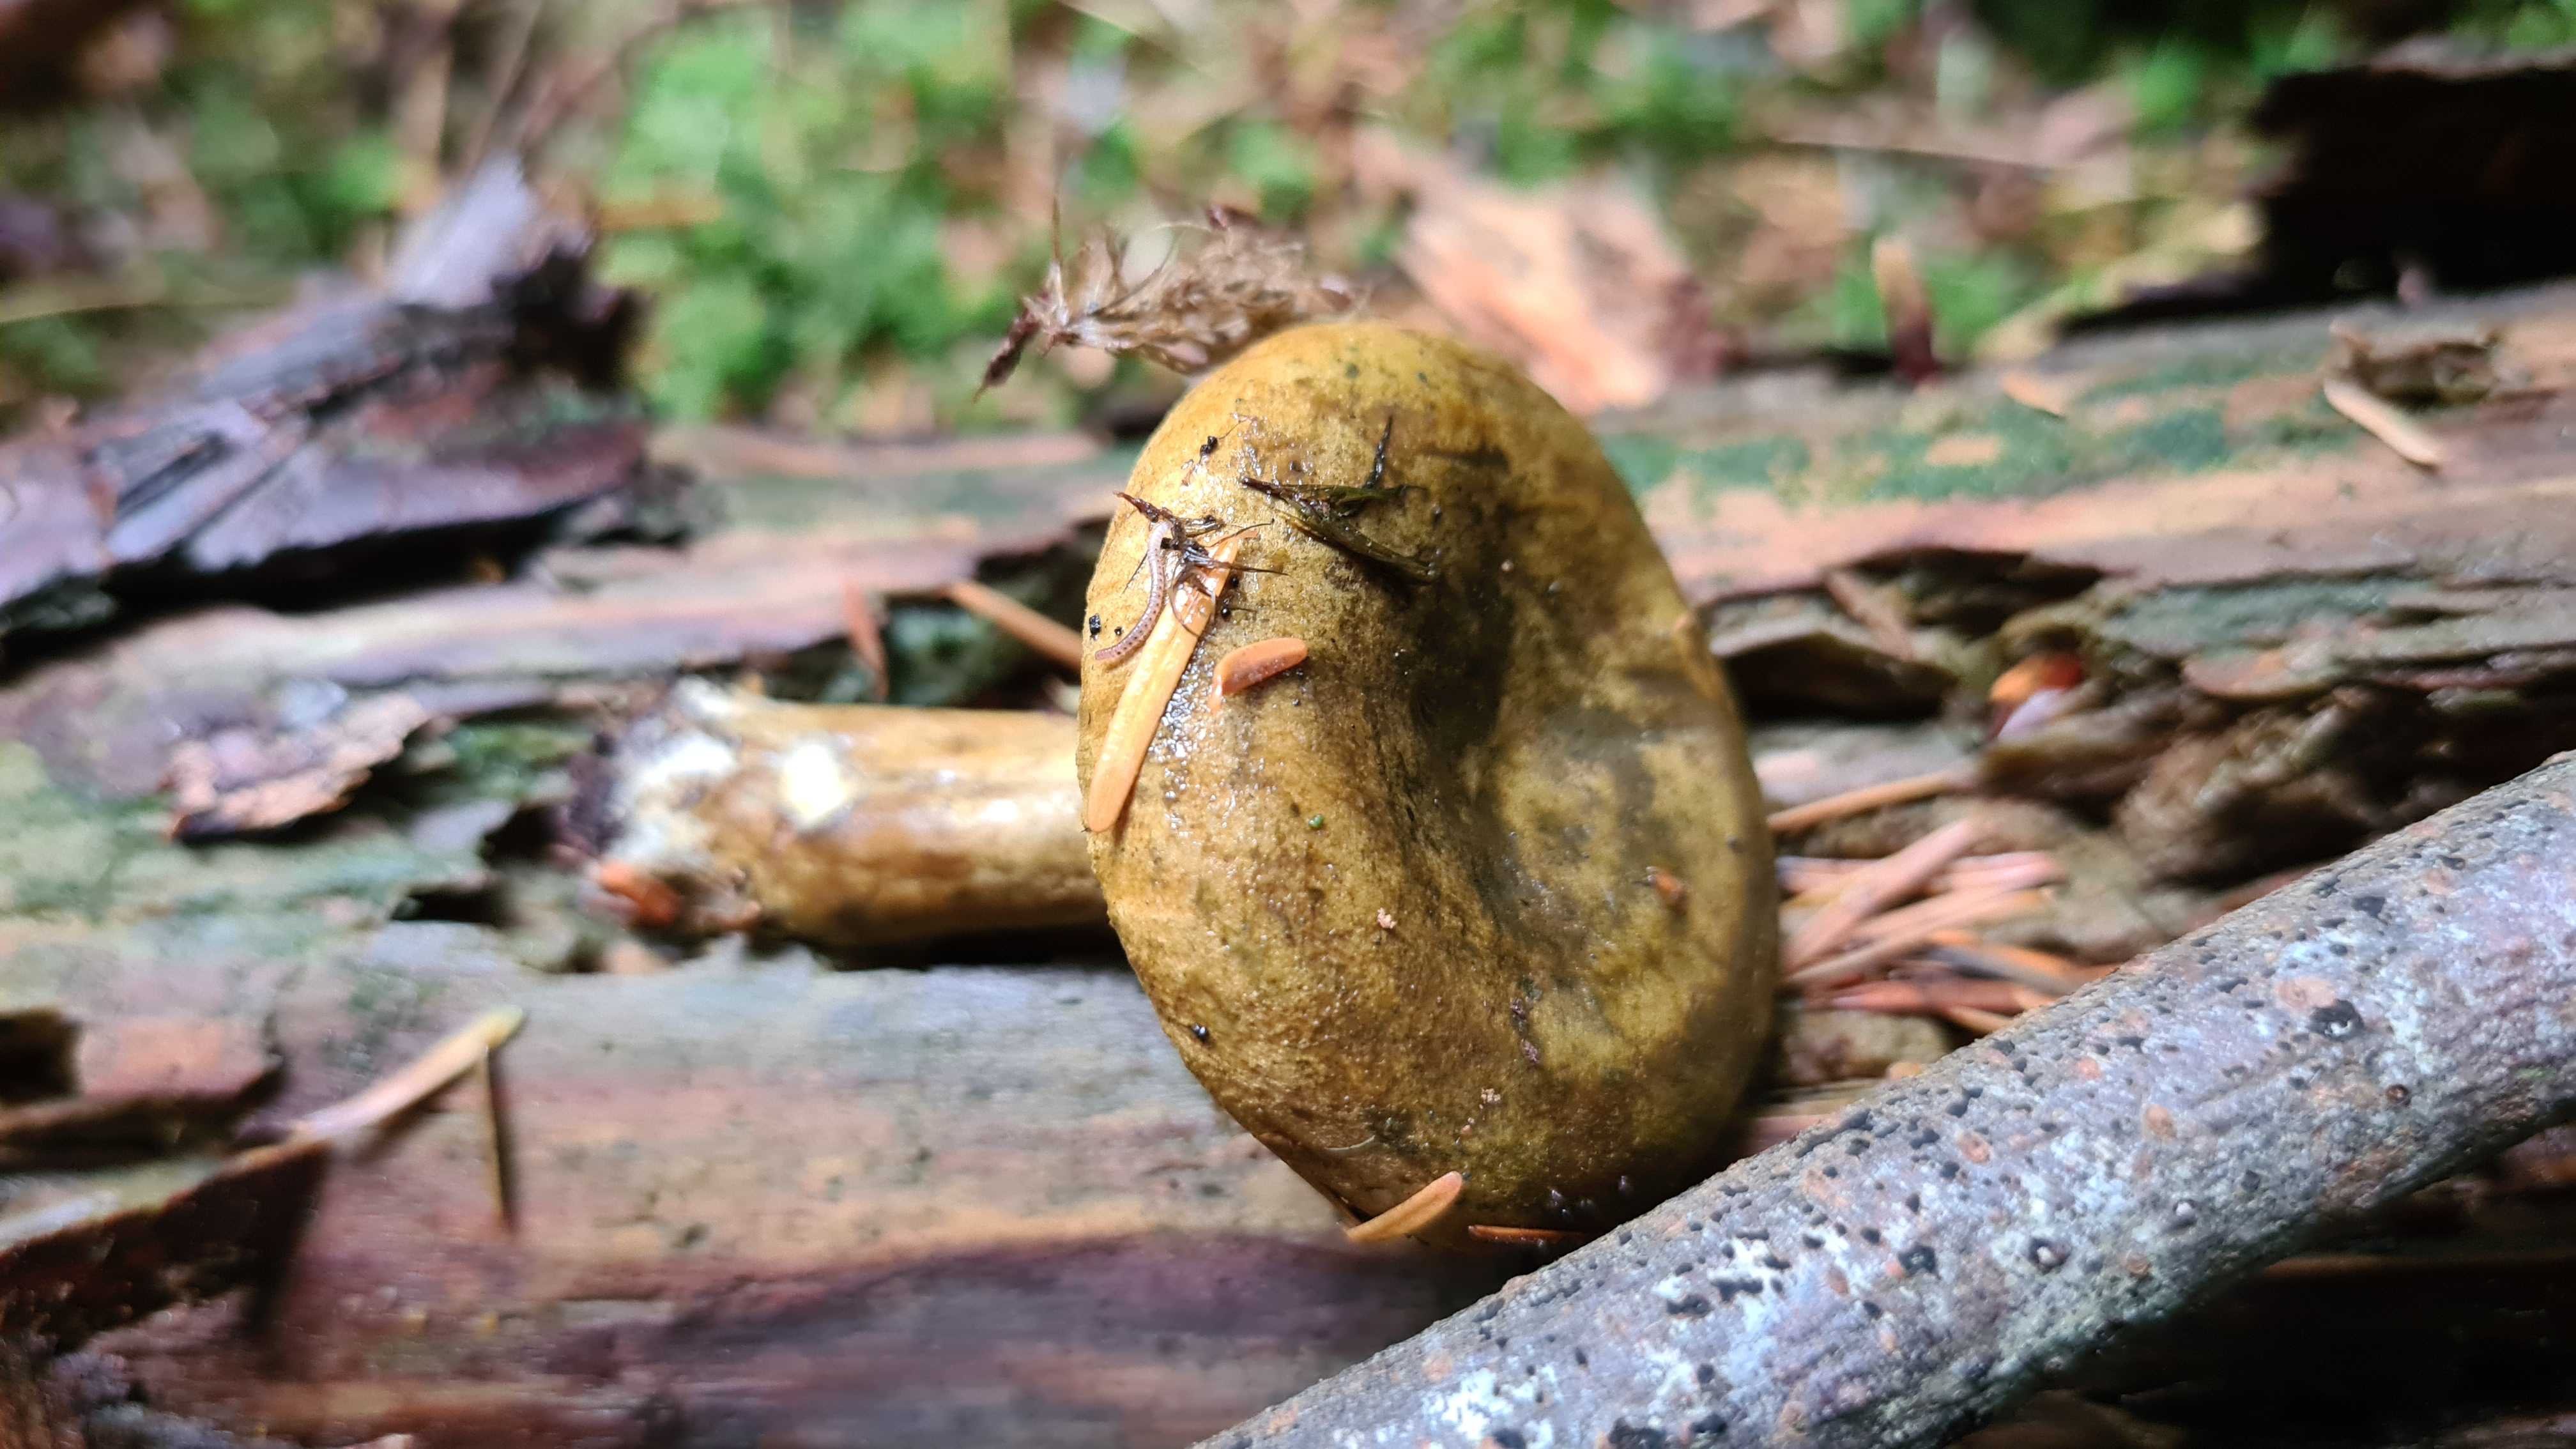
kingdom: Fungi
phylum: Basidiomycota
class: Agaricomycetes
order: Russulales
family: Russulaceae
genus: Lactarius
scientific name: Lactarius necator
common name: manddraber-mælkehat
